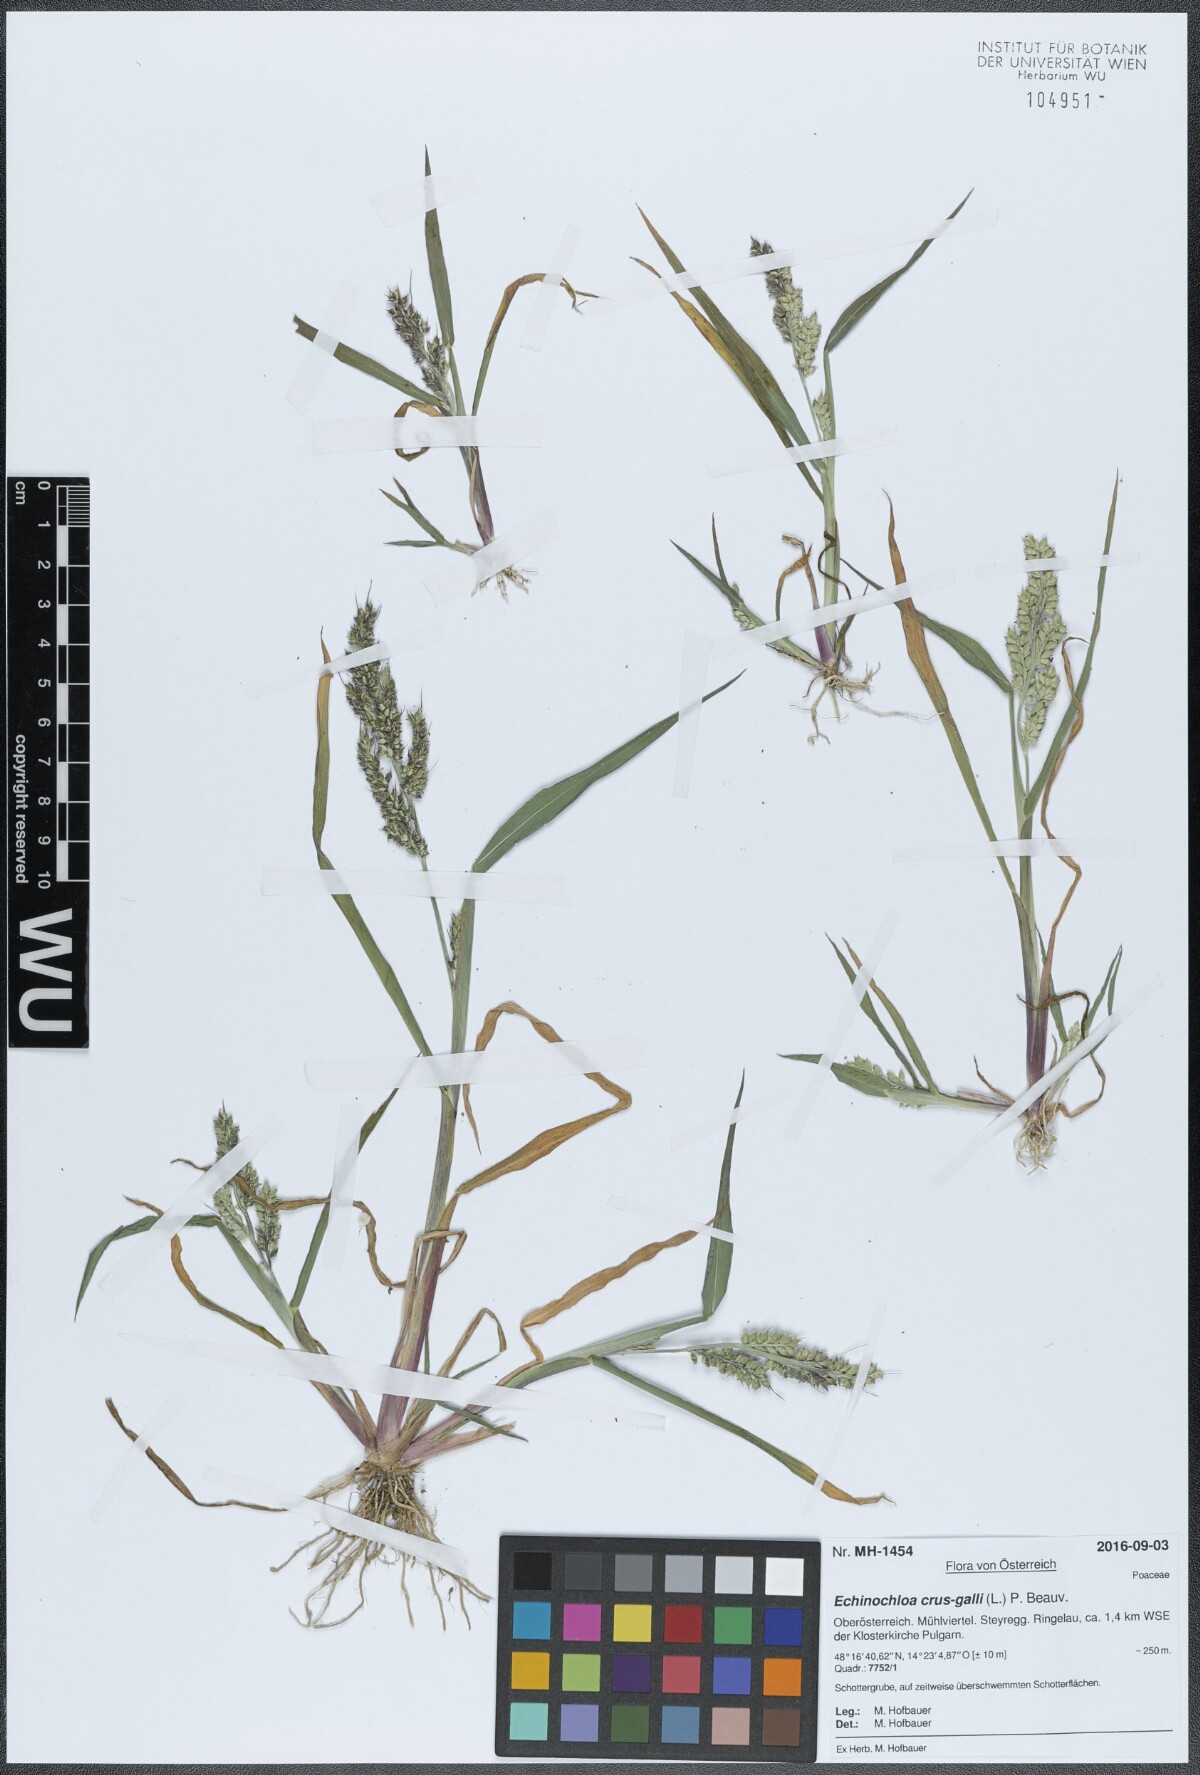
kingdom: Plantae
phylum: Tracheophyta
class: Liliopsida
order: Poales
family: Poaceae
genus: Echinochloa
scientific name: Echinochloa crus-galli
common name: Cockspur
